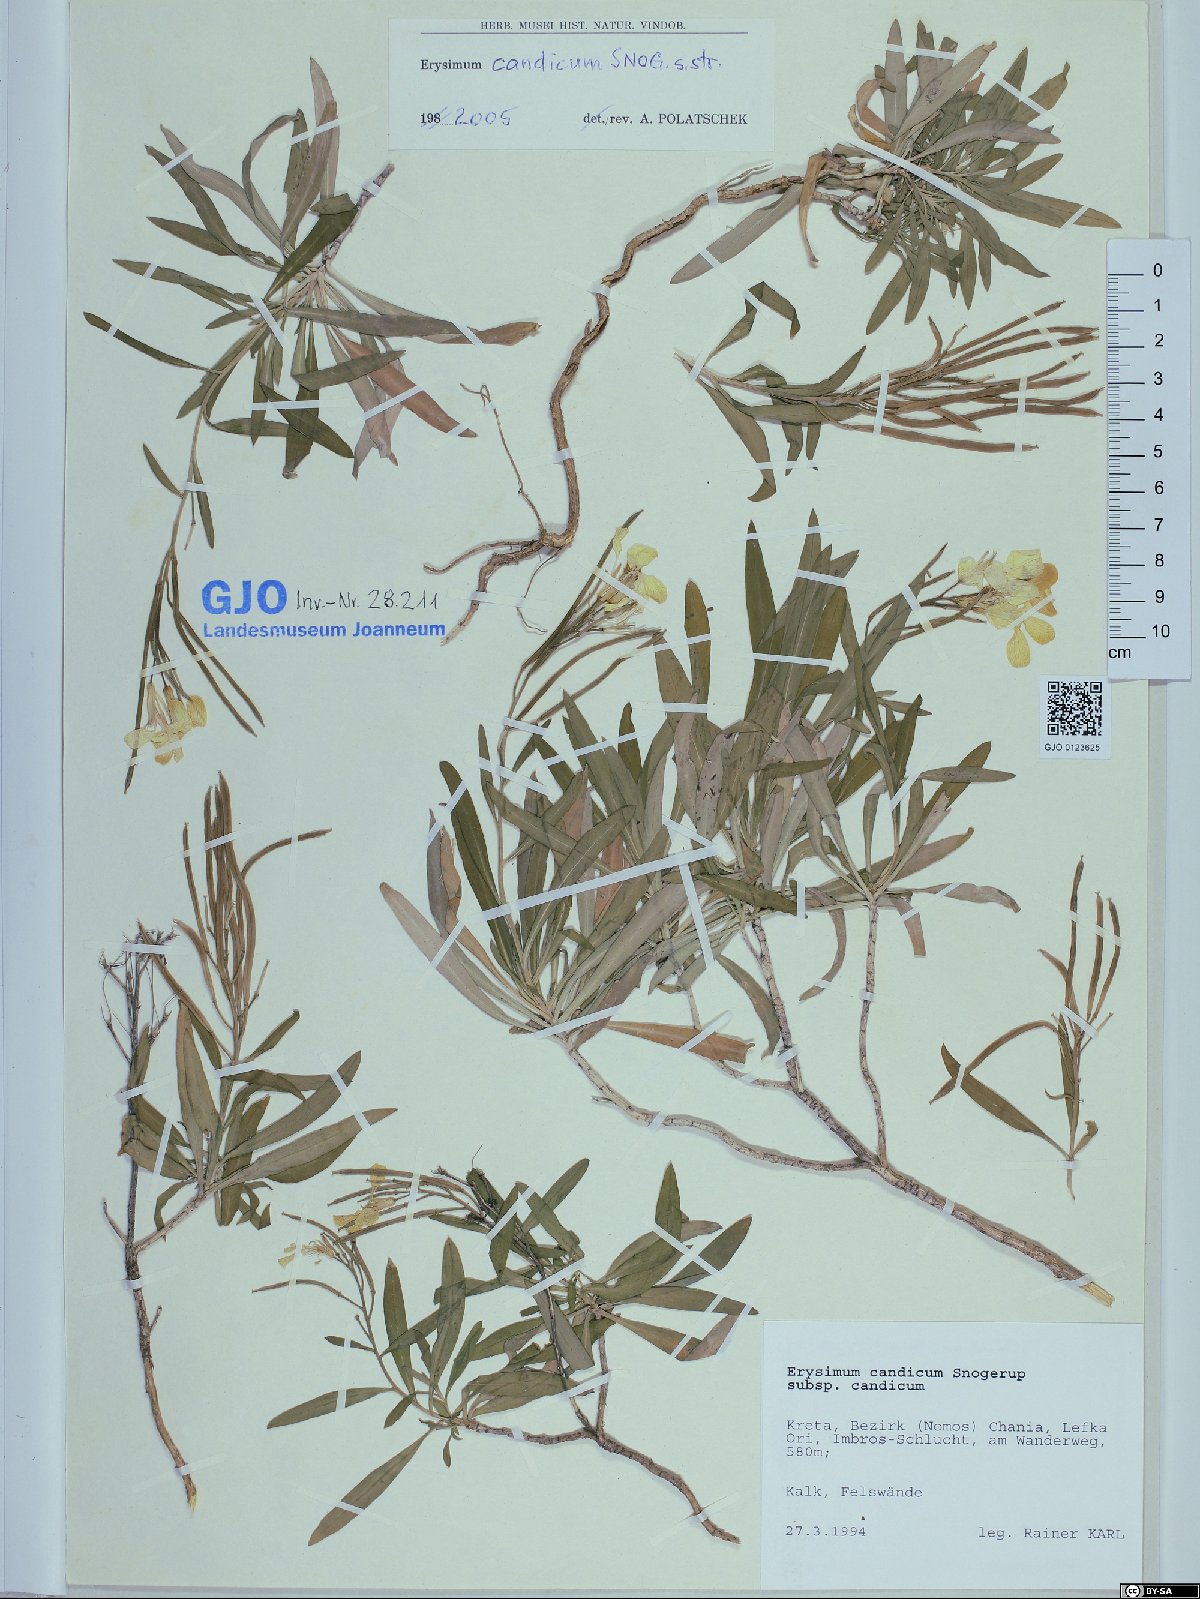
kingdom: Plantae
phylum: Tracheophyta
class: Magnoliopsida
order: Brassicales
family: Brassicaceae
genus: Erysimum
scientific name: Erysimum candicum
